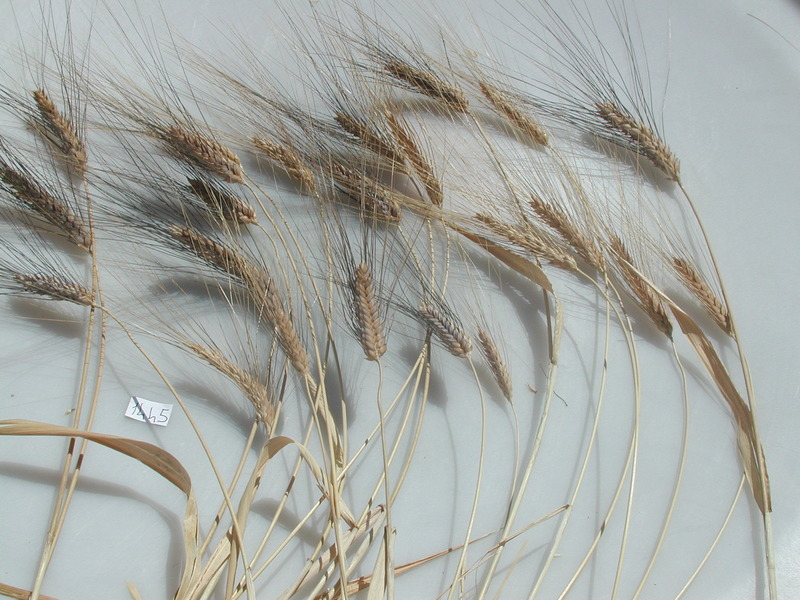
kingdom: Plantae
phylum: Tracheophyta
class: Liliopsida
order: Poales
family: Poaceae
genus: Triticum
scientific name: Triticum turgidum
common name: Wheat
